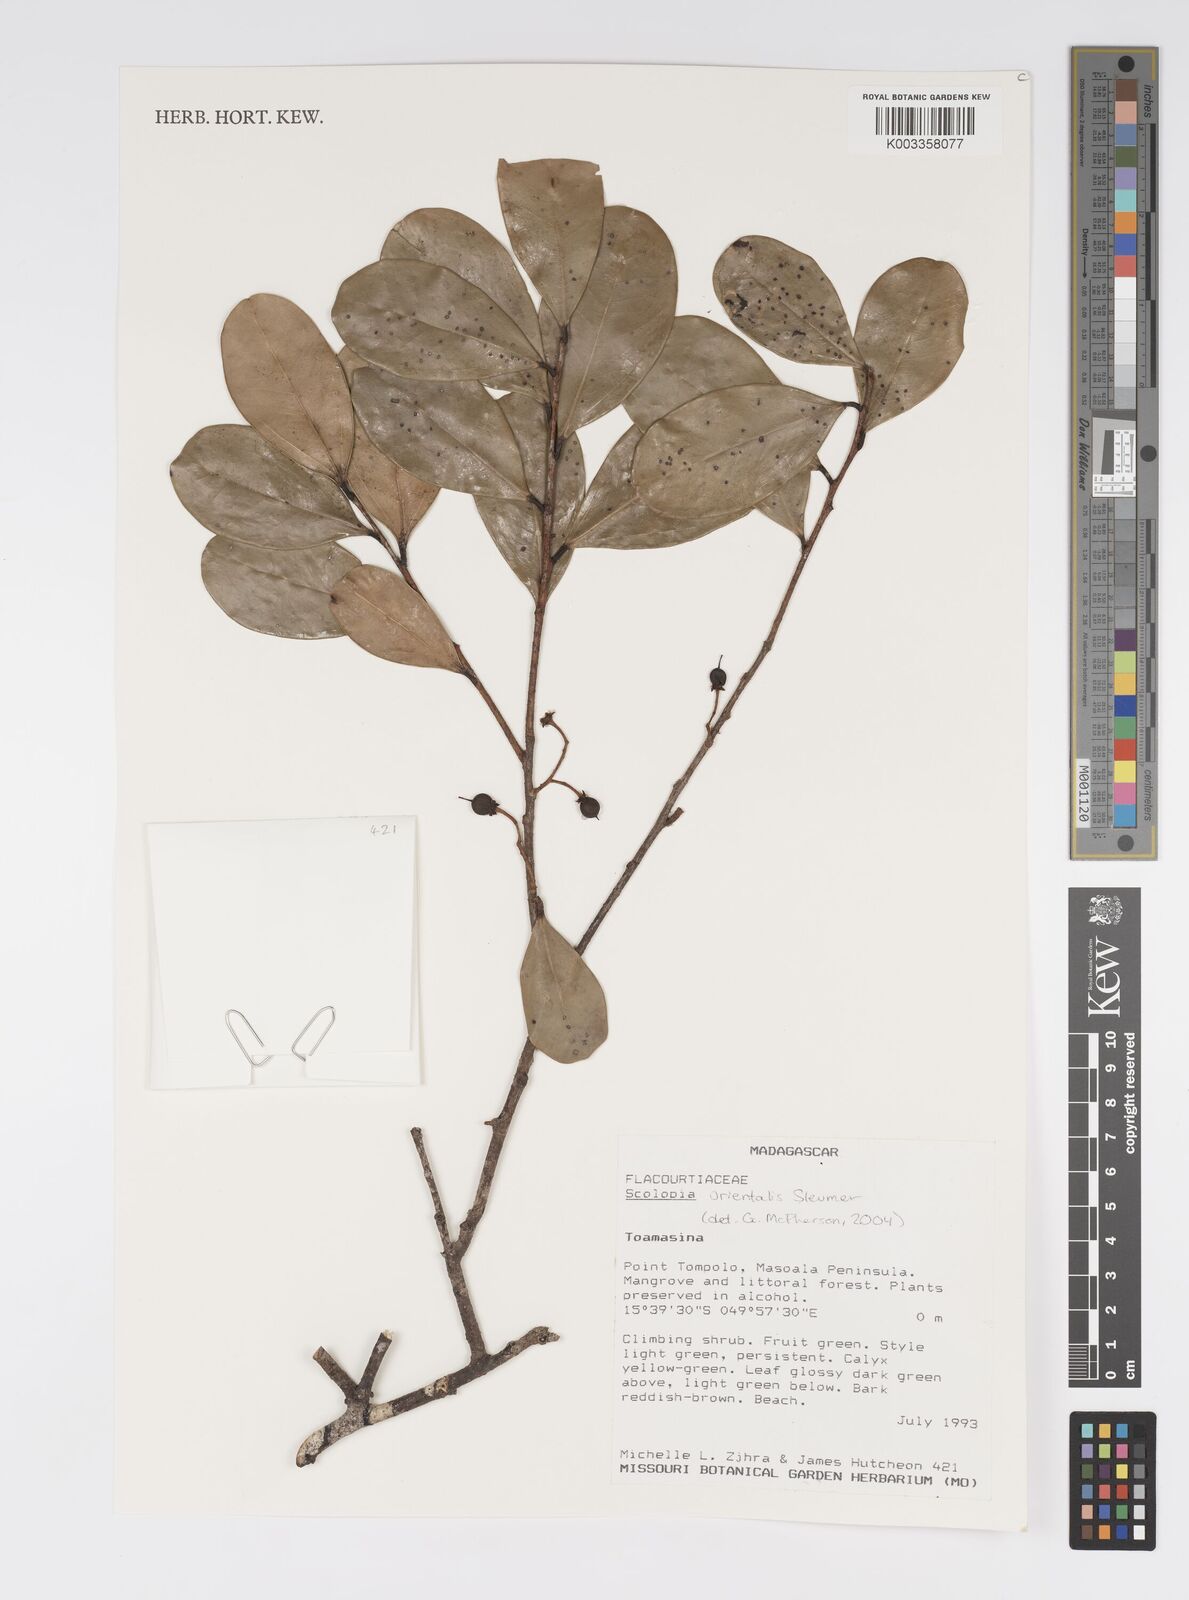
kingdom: Plantae
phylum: Tracheophyta
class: Magnoliopsida
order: Malpighiales
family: Salicaceae
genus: Scolopia
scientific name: Scolopia orientalis
